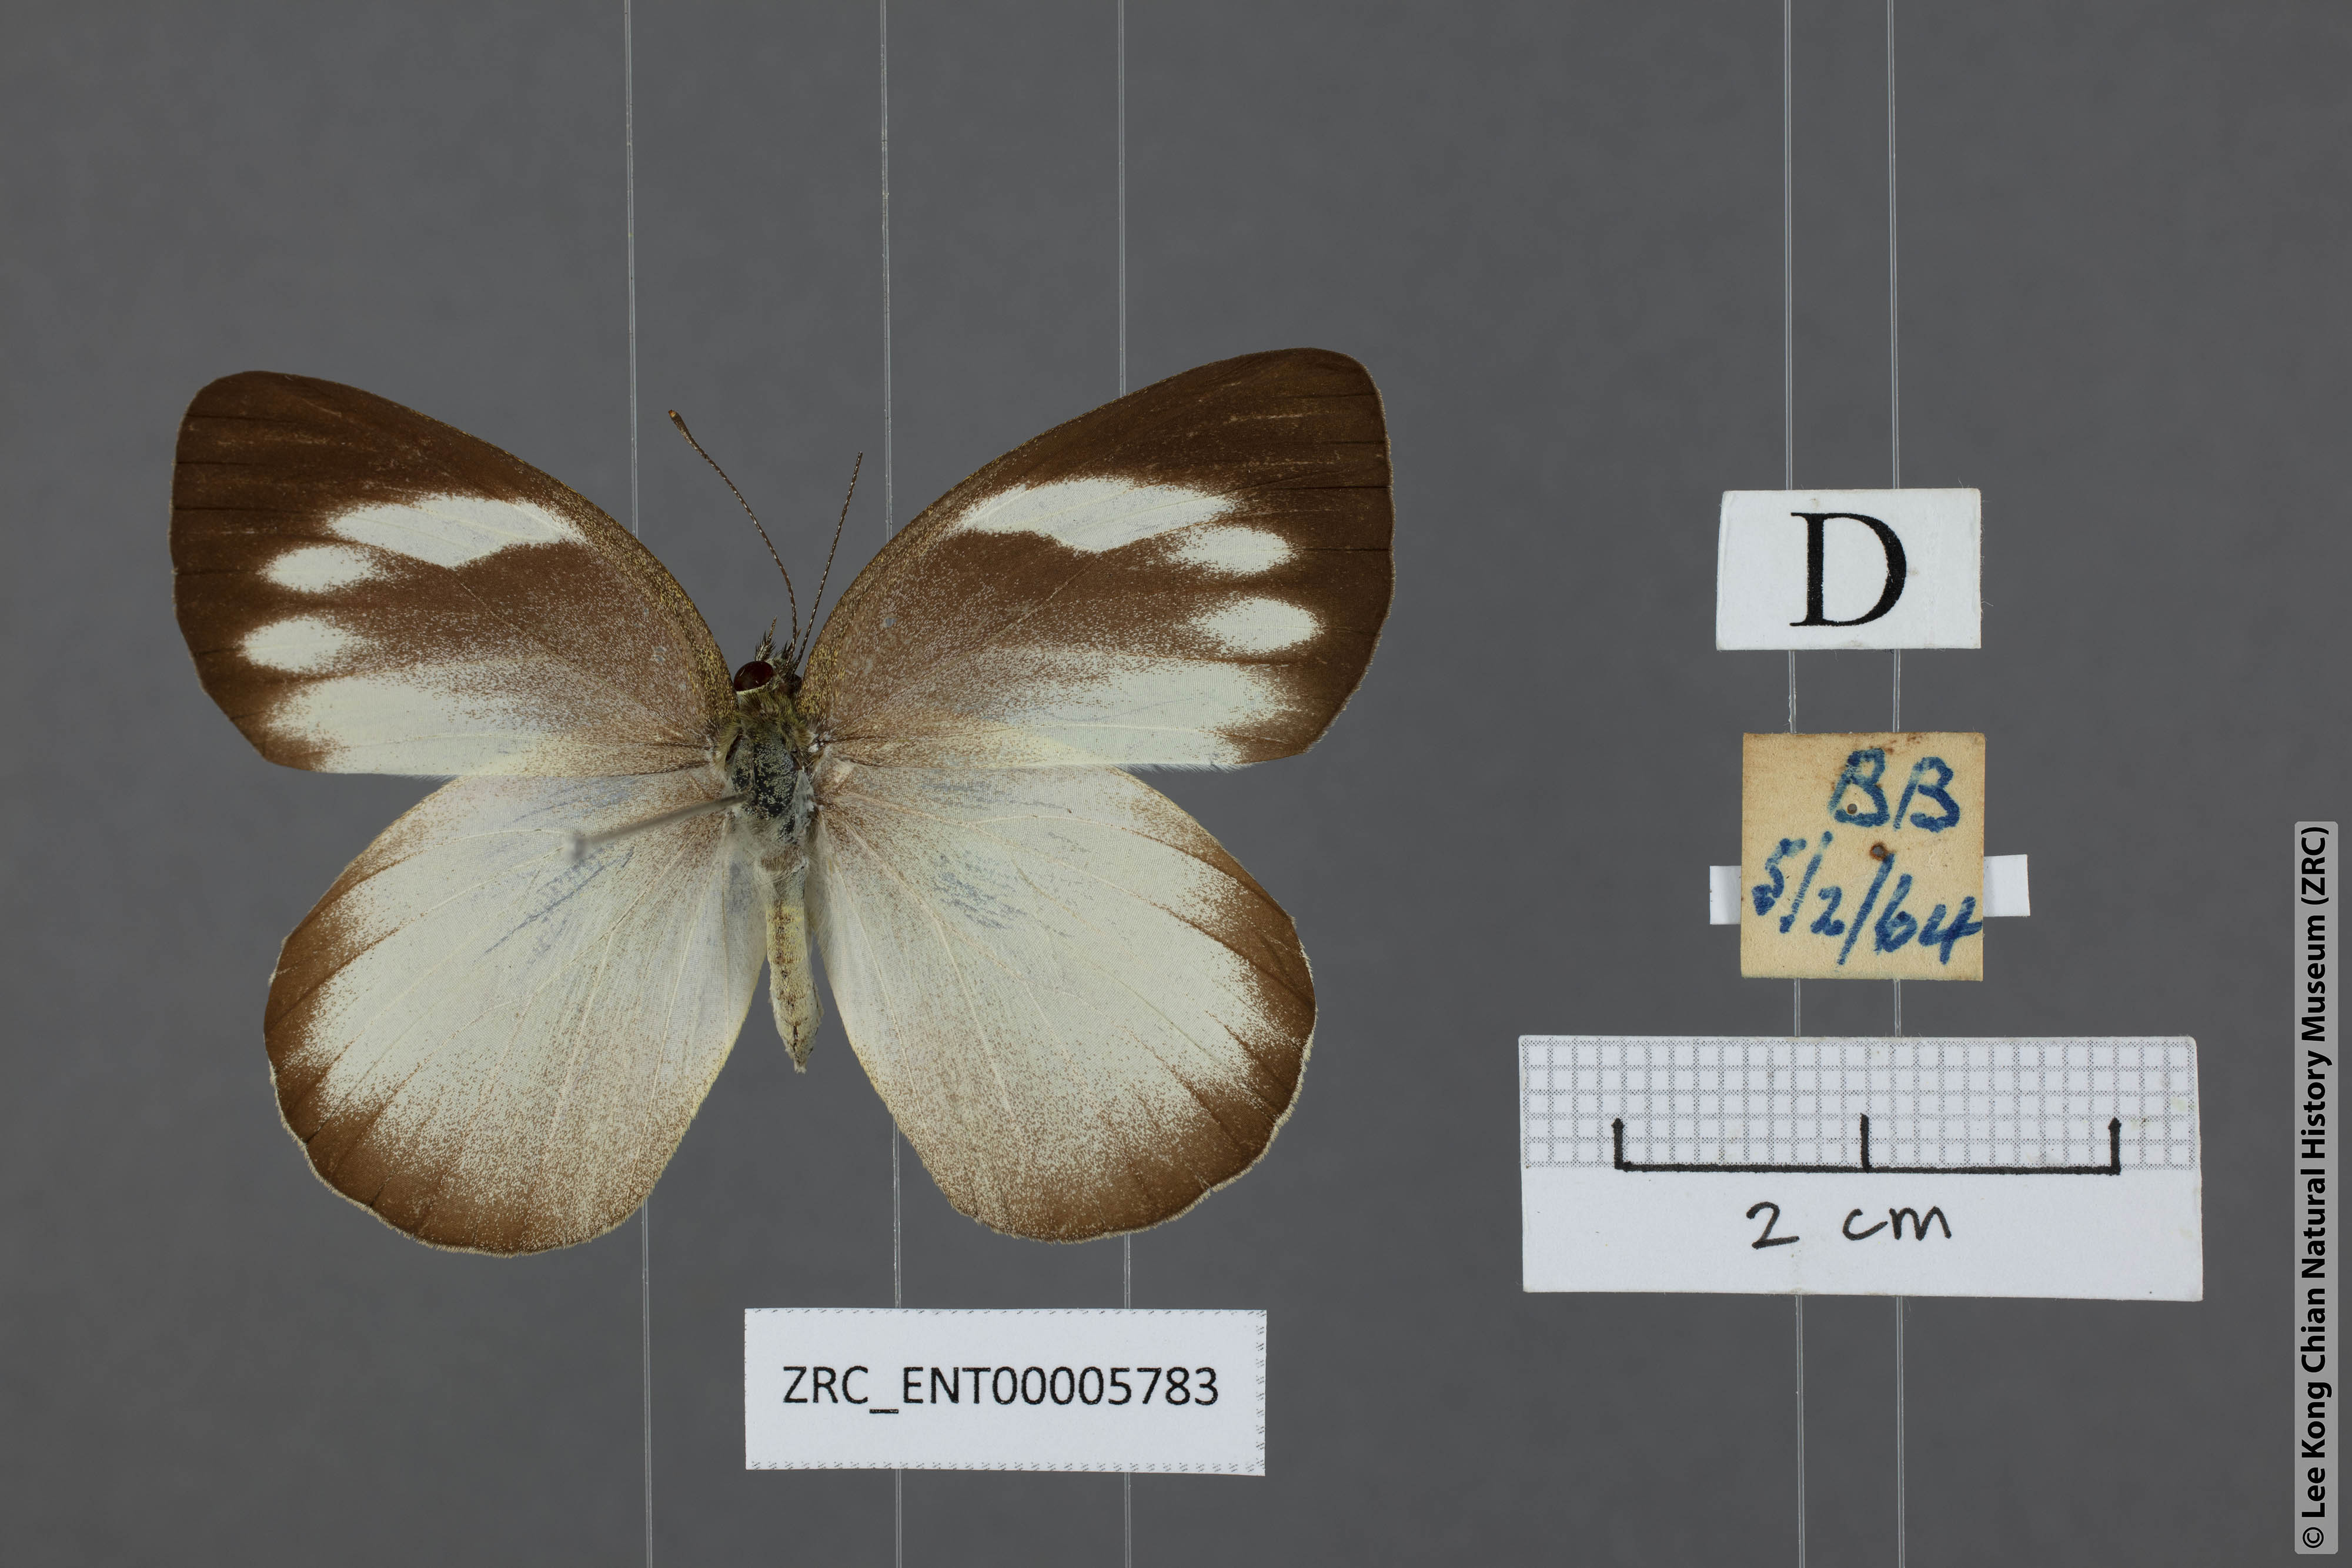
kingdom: Animalia
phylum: Arthropoda
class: Insecta
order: Lepidoptera
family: Pieridae
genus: Phrissura
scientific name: Phrissura aegis
